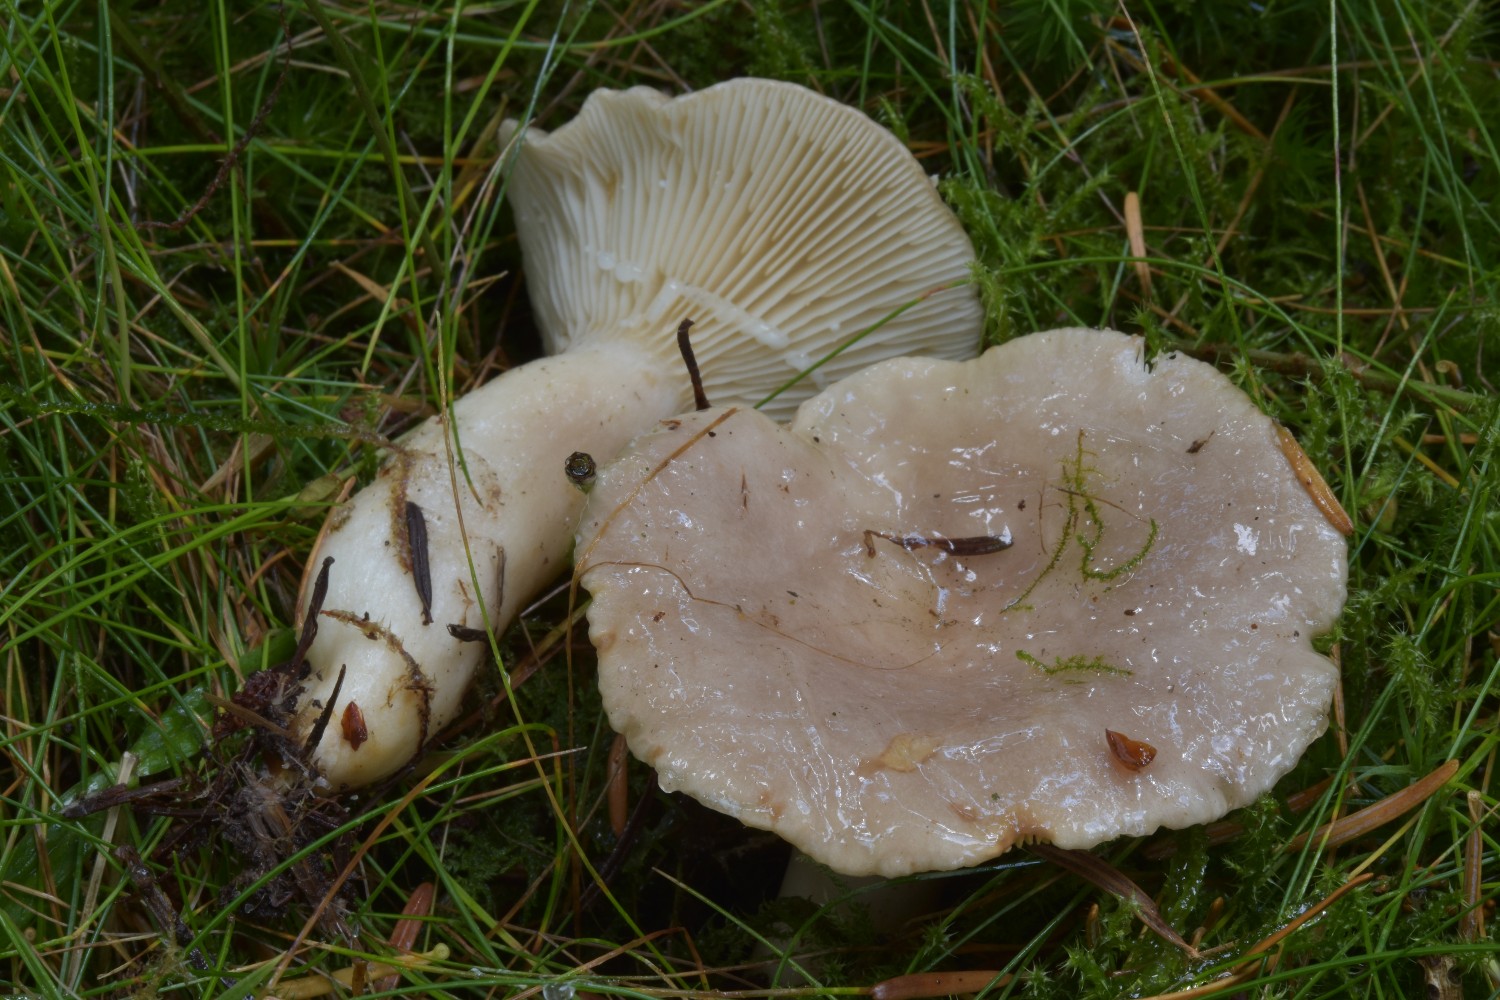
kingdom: Fungi
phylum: Basidiomycota
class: Agaricomycetes
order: Russulales
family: Russulaceae
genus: Lactarius
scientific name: Lactarius albocarneus
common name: ædelgran-mælkehat
